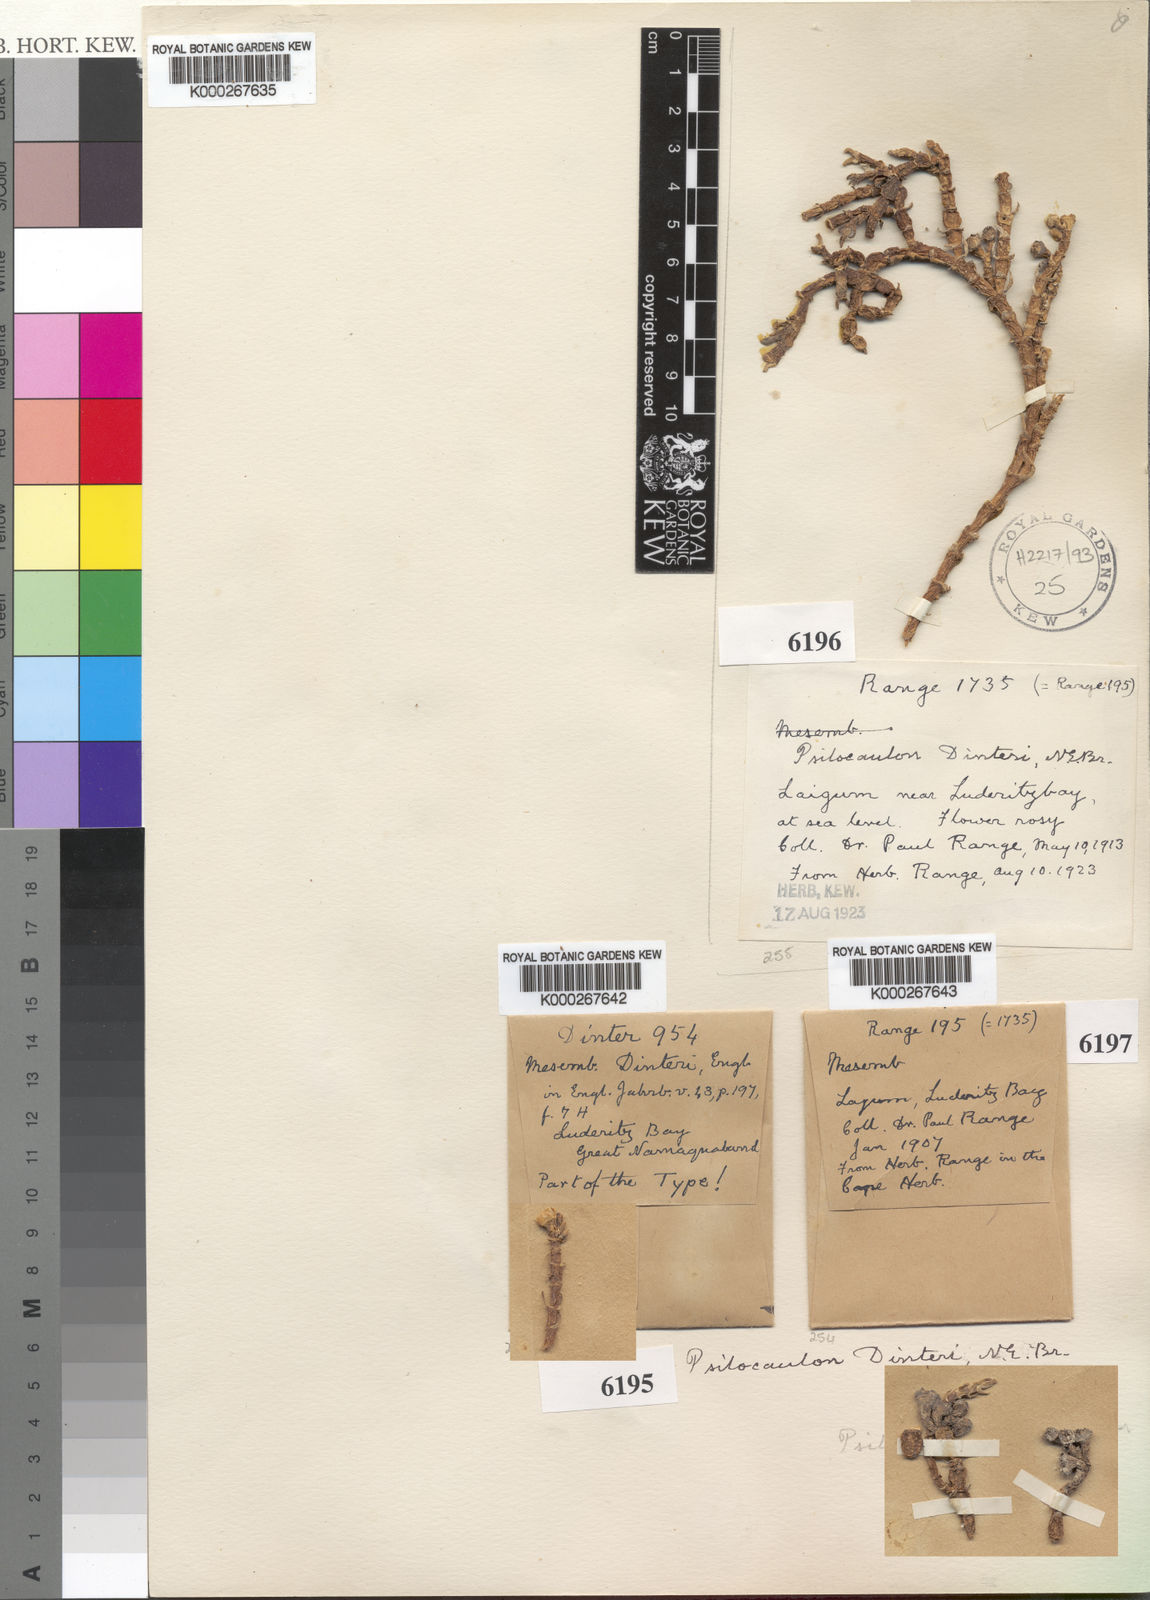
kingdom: Plantae
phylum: Tracheophyta
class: Magnoliopsida
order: Caryophyllales
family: Aizoaceae
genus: Mesembryanthemum
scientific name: Mesembryanthemum
